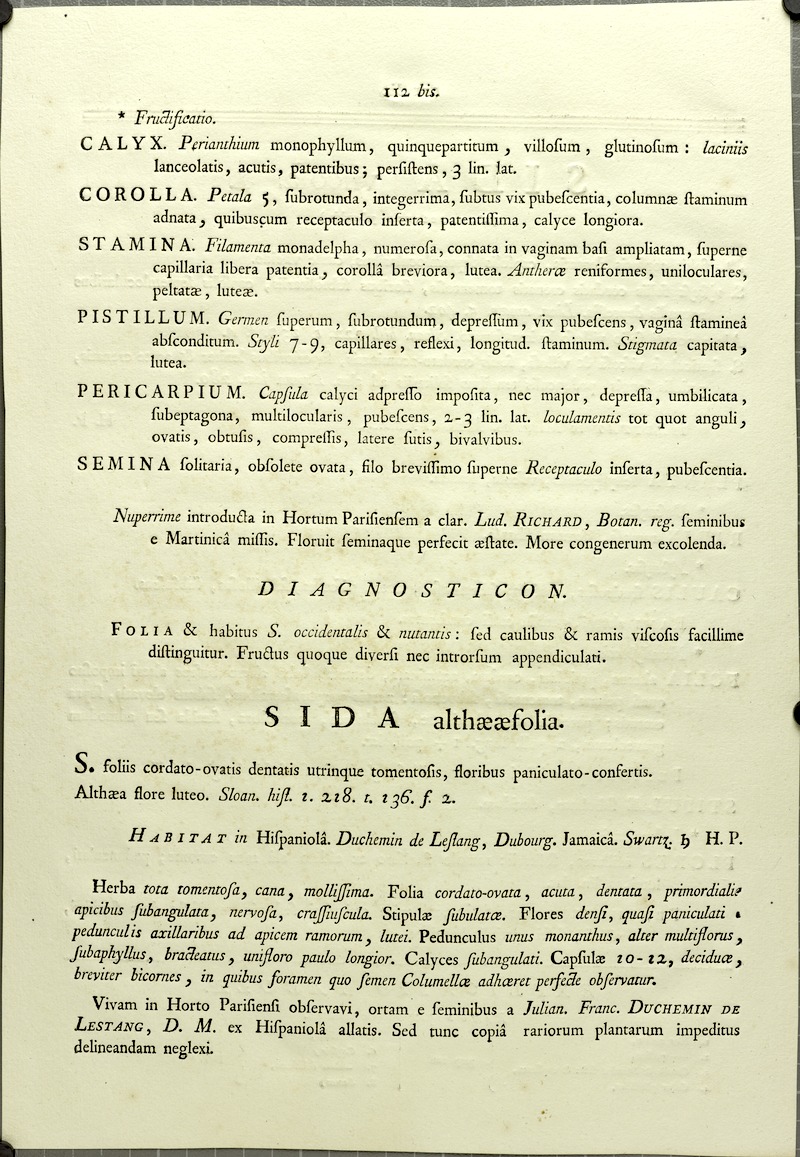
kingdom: Plantae
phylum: Tracheophyta
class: Magnoliopsida
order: Malvales
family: Malvaceae
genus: Abutilon
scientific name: Abutilon viscosum
